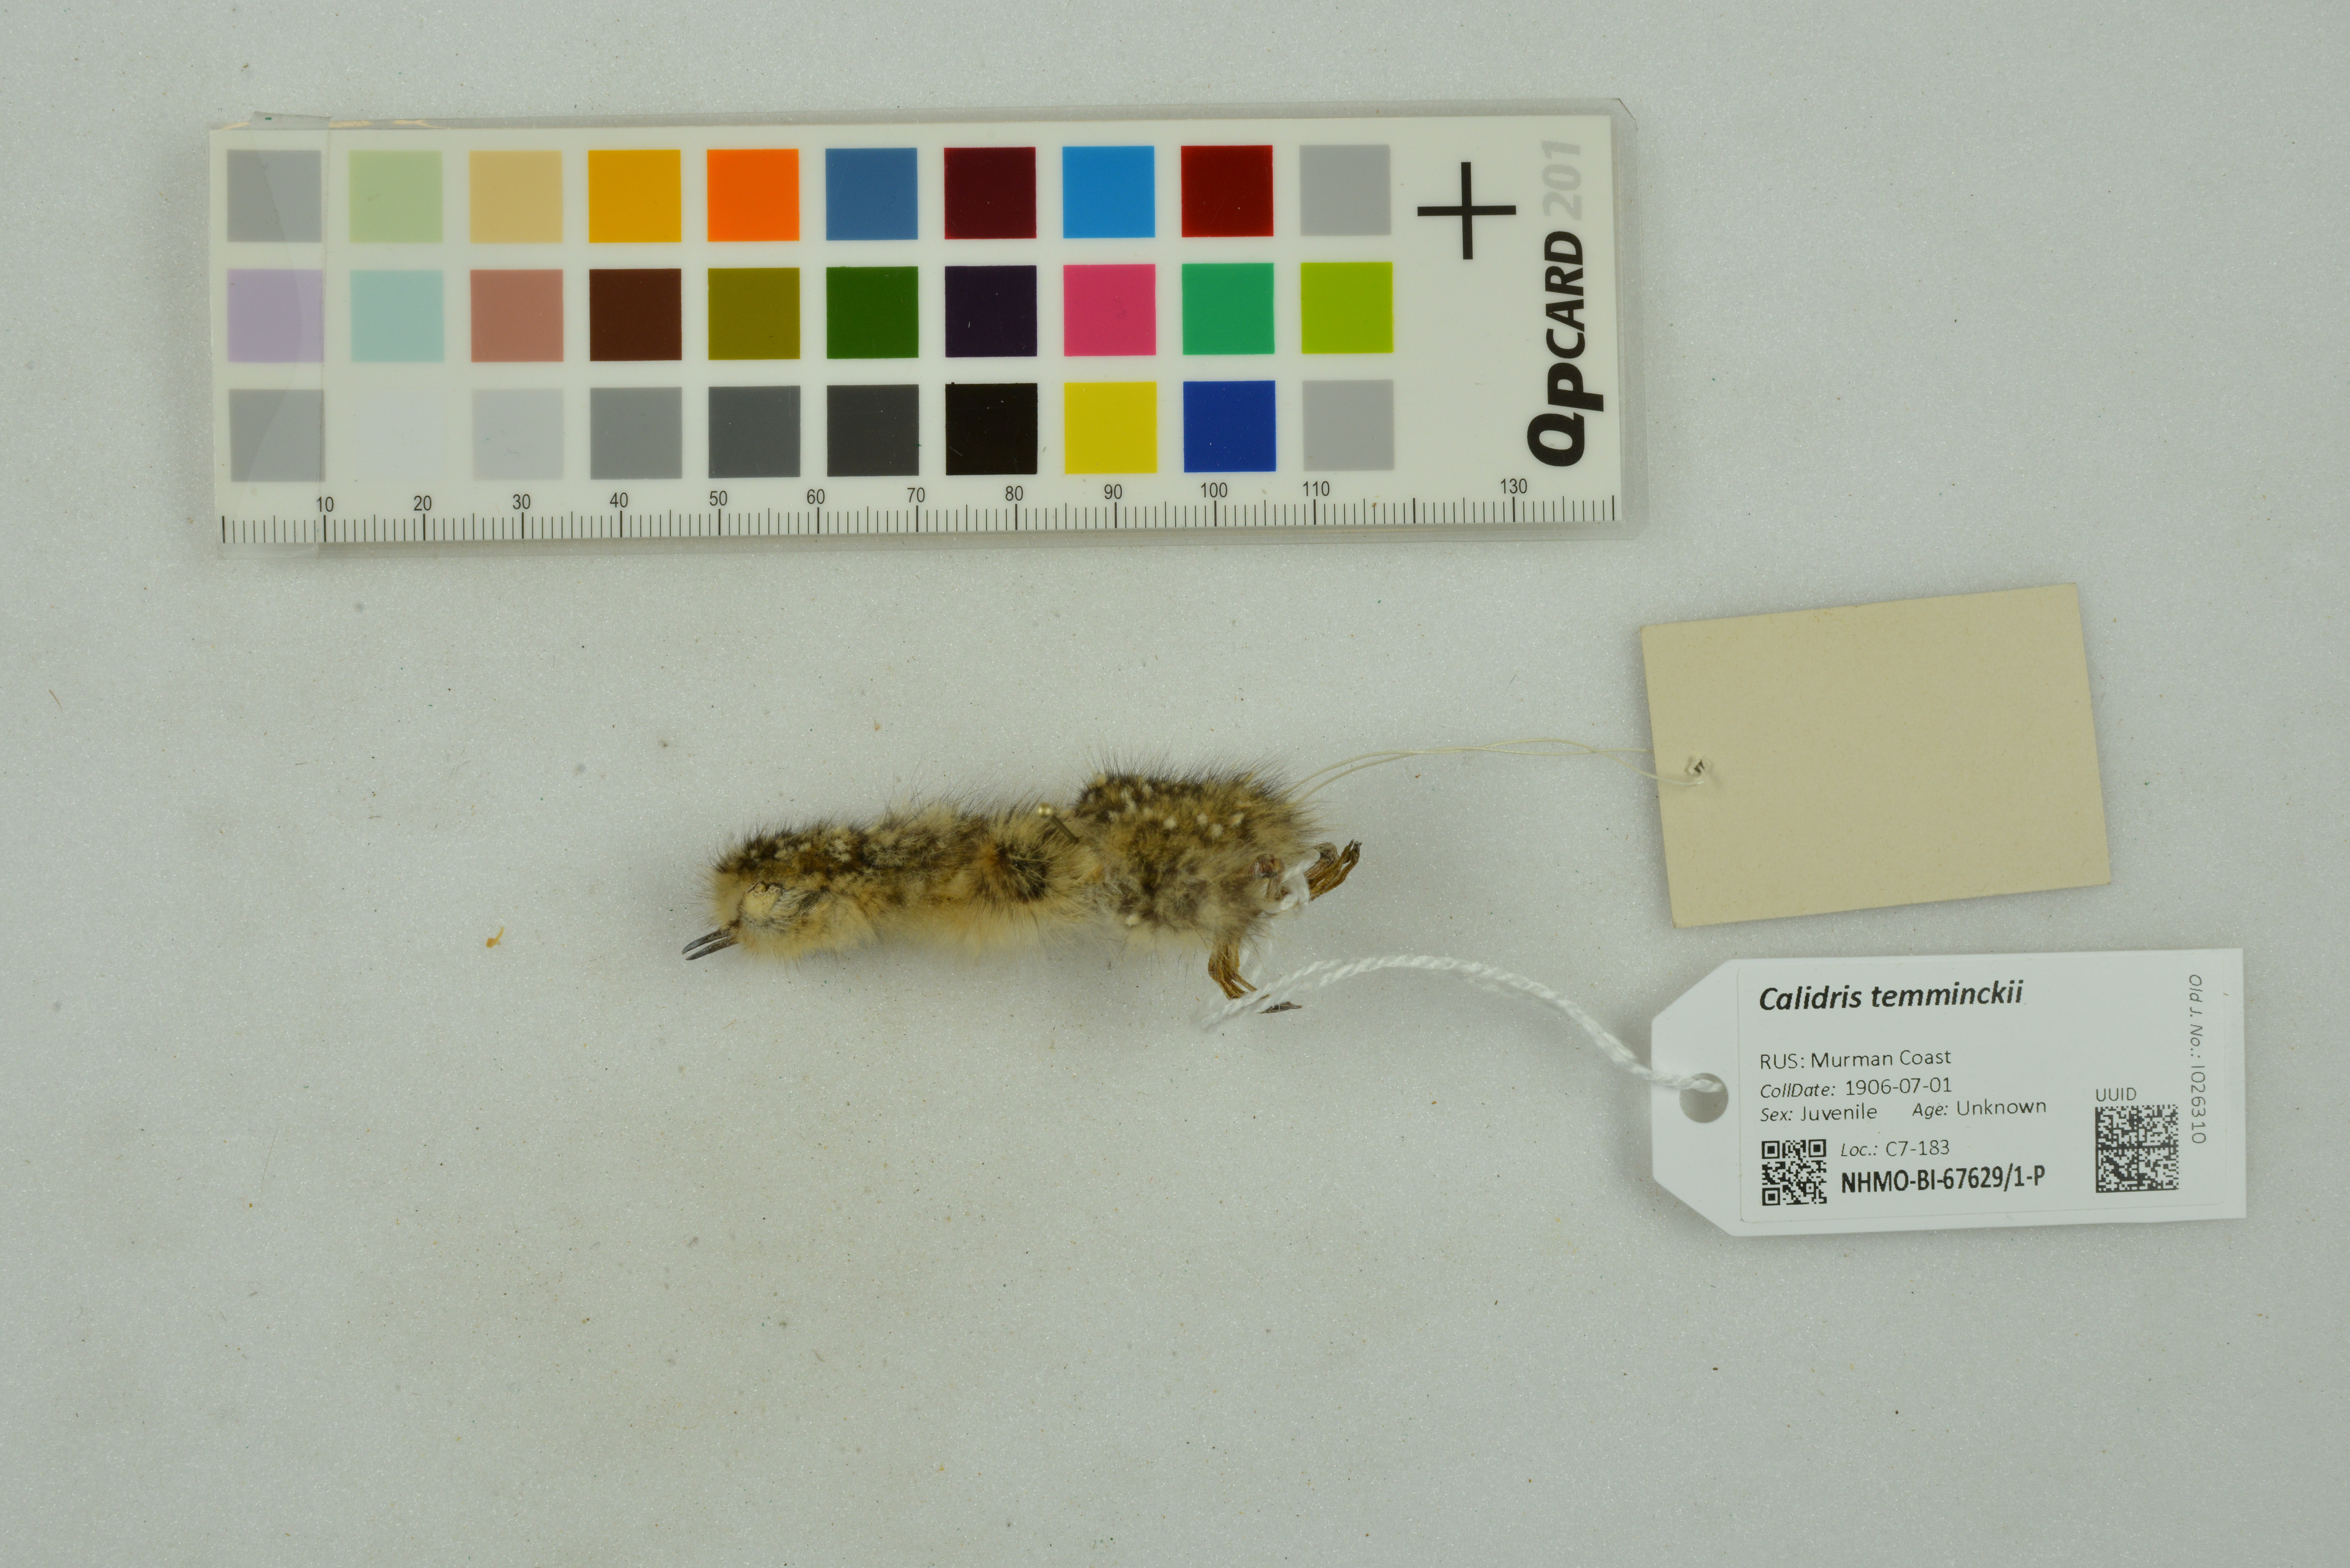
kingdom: Animalia
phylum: Chordata
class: Aves
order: Charadriiformes
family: Scolopacidae
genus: Calidris
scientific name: Calidris temminckii
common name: Temminck's stint
